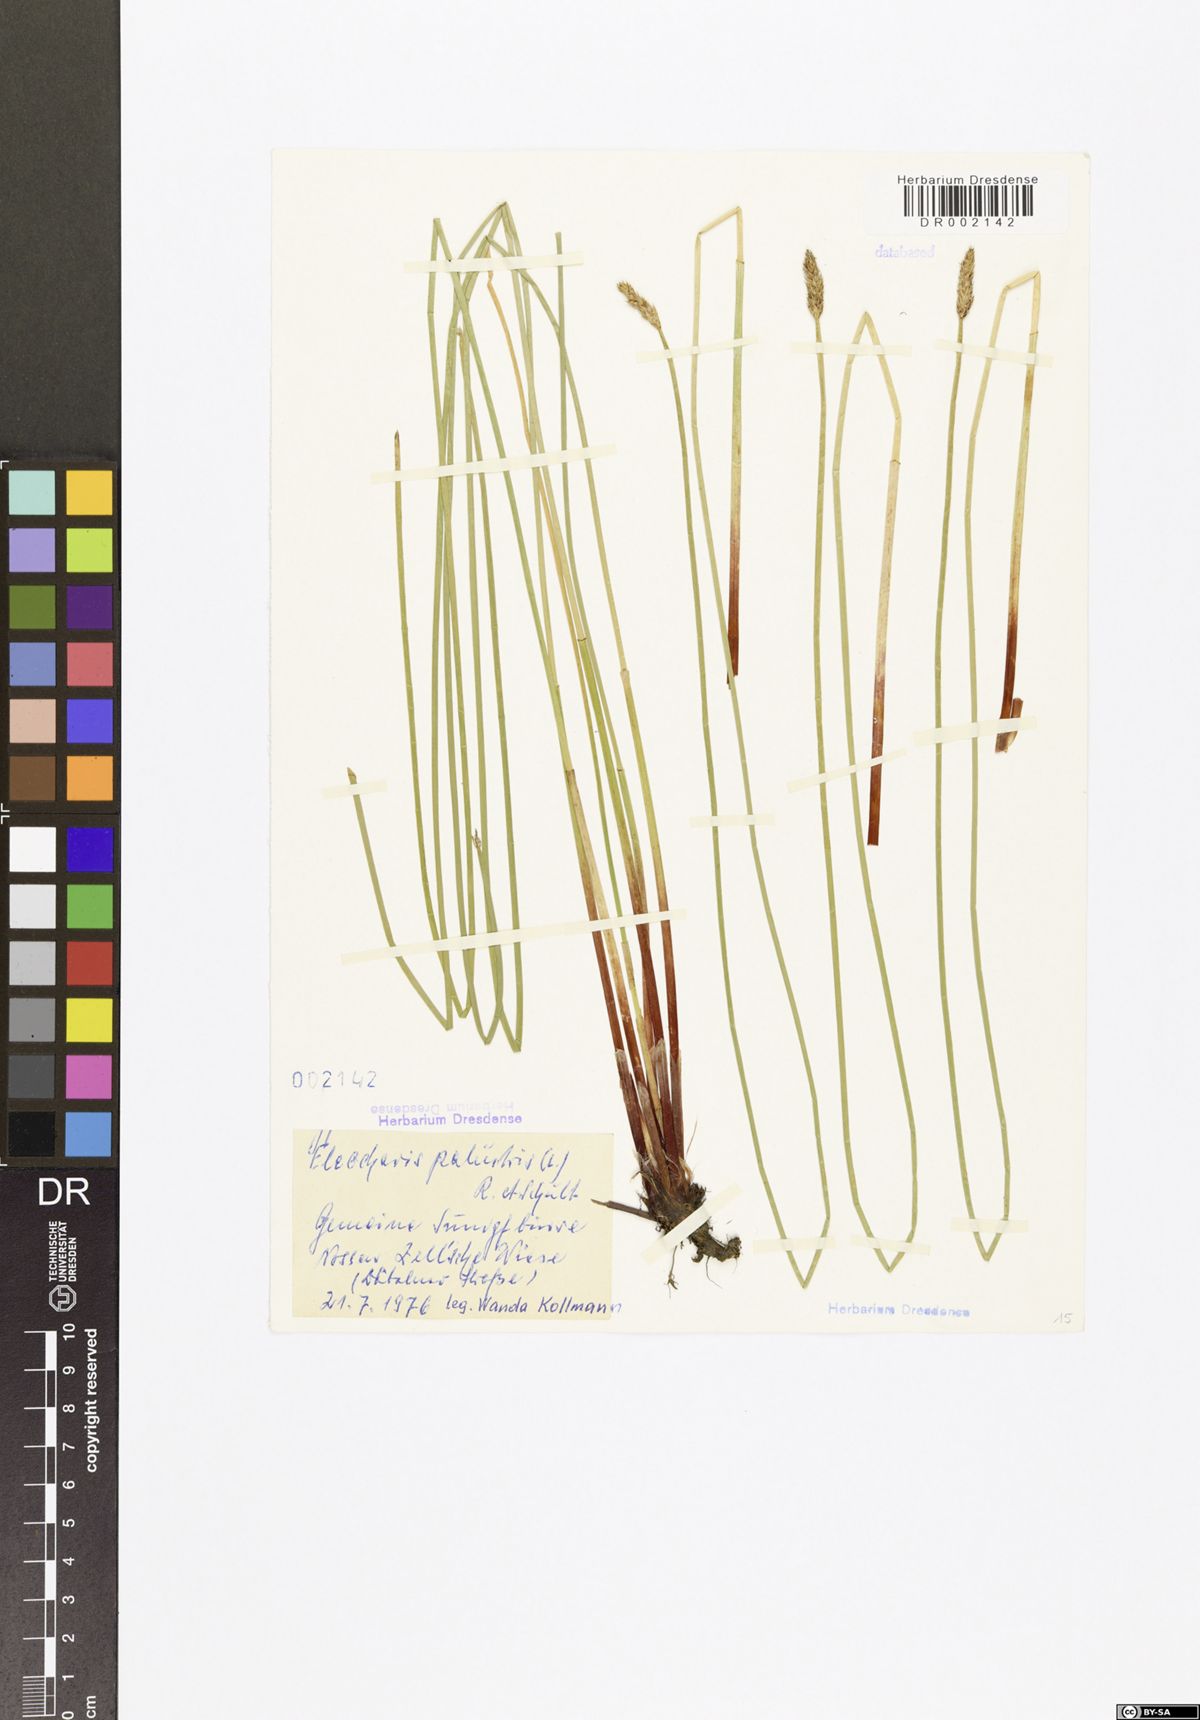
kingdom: Plantae
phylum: Tracheophyta
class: Liliopsida
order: Poales
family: Cyperaceae
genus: Eleocharis
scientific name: Eleocharis palustris
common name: Common spike-rush
